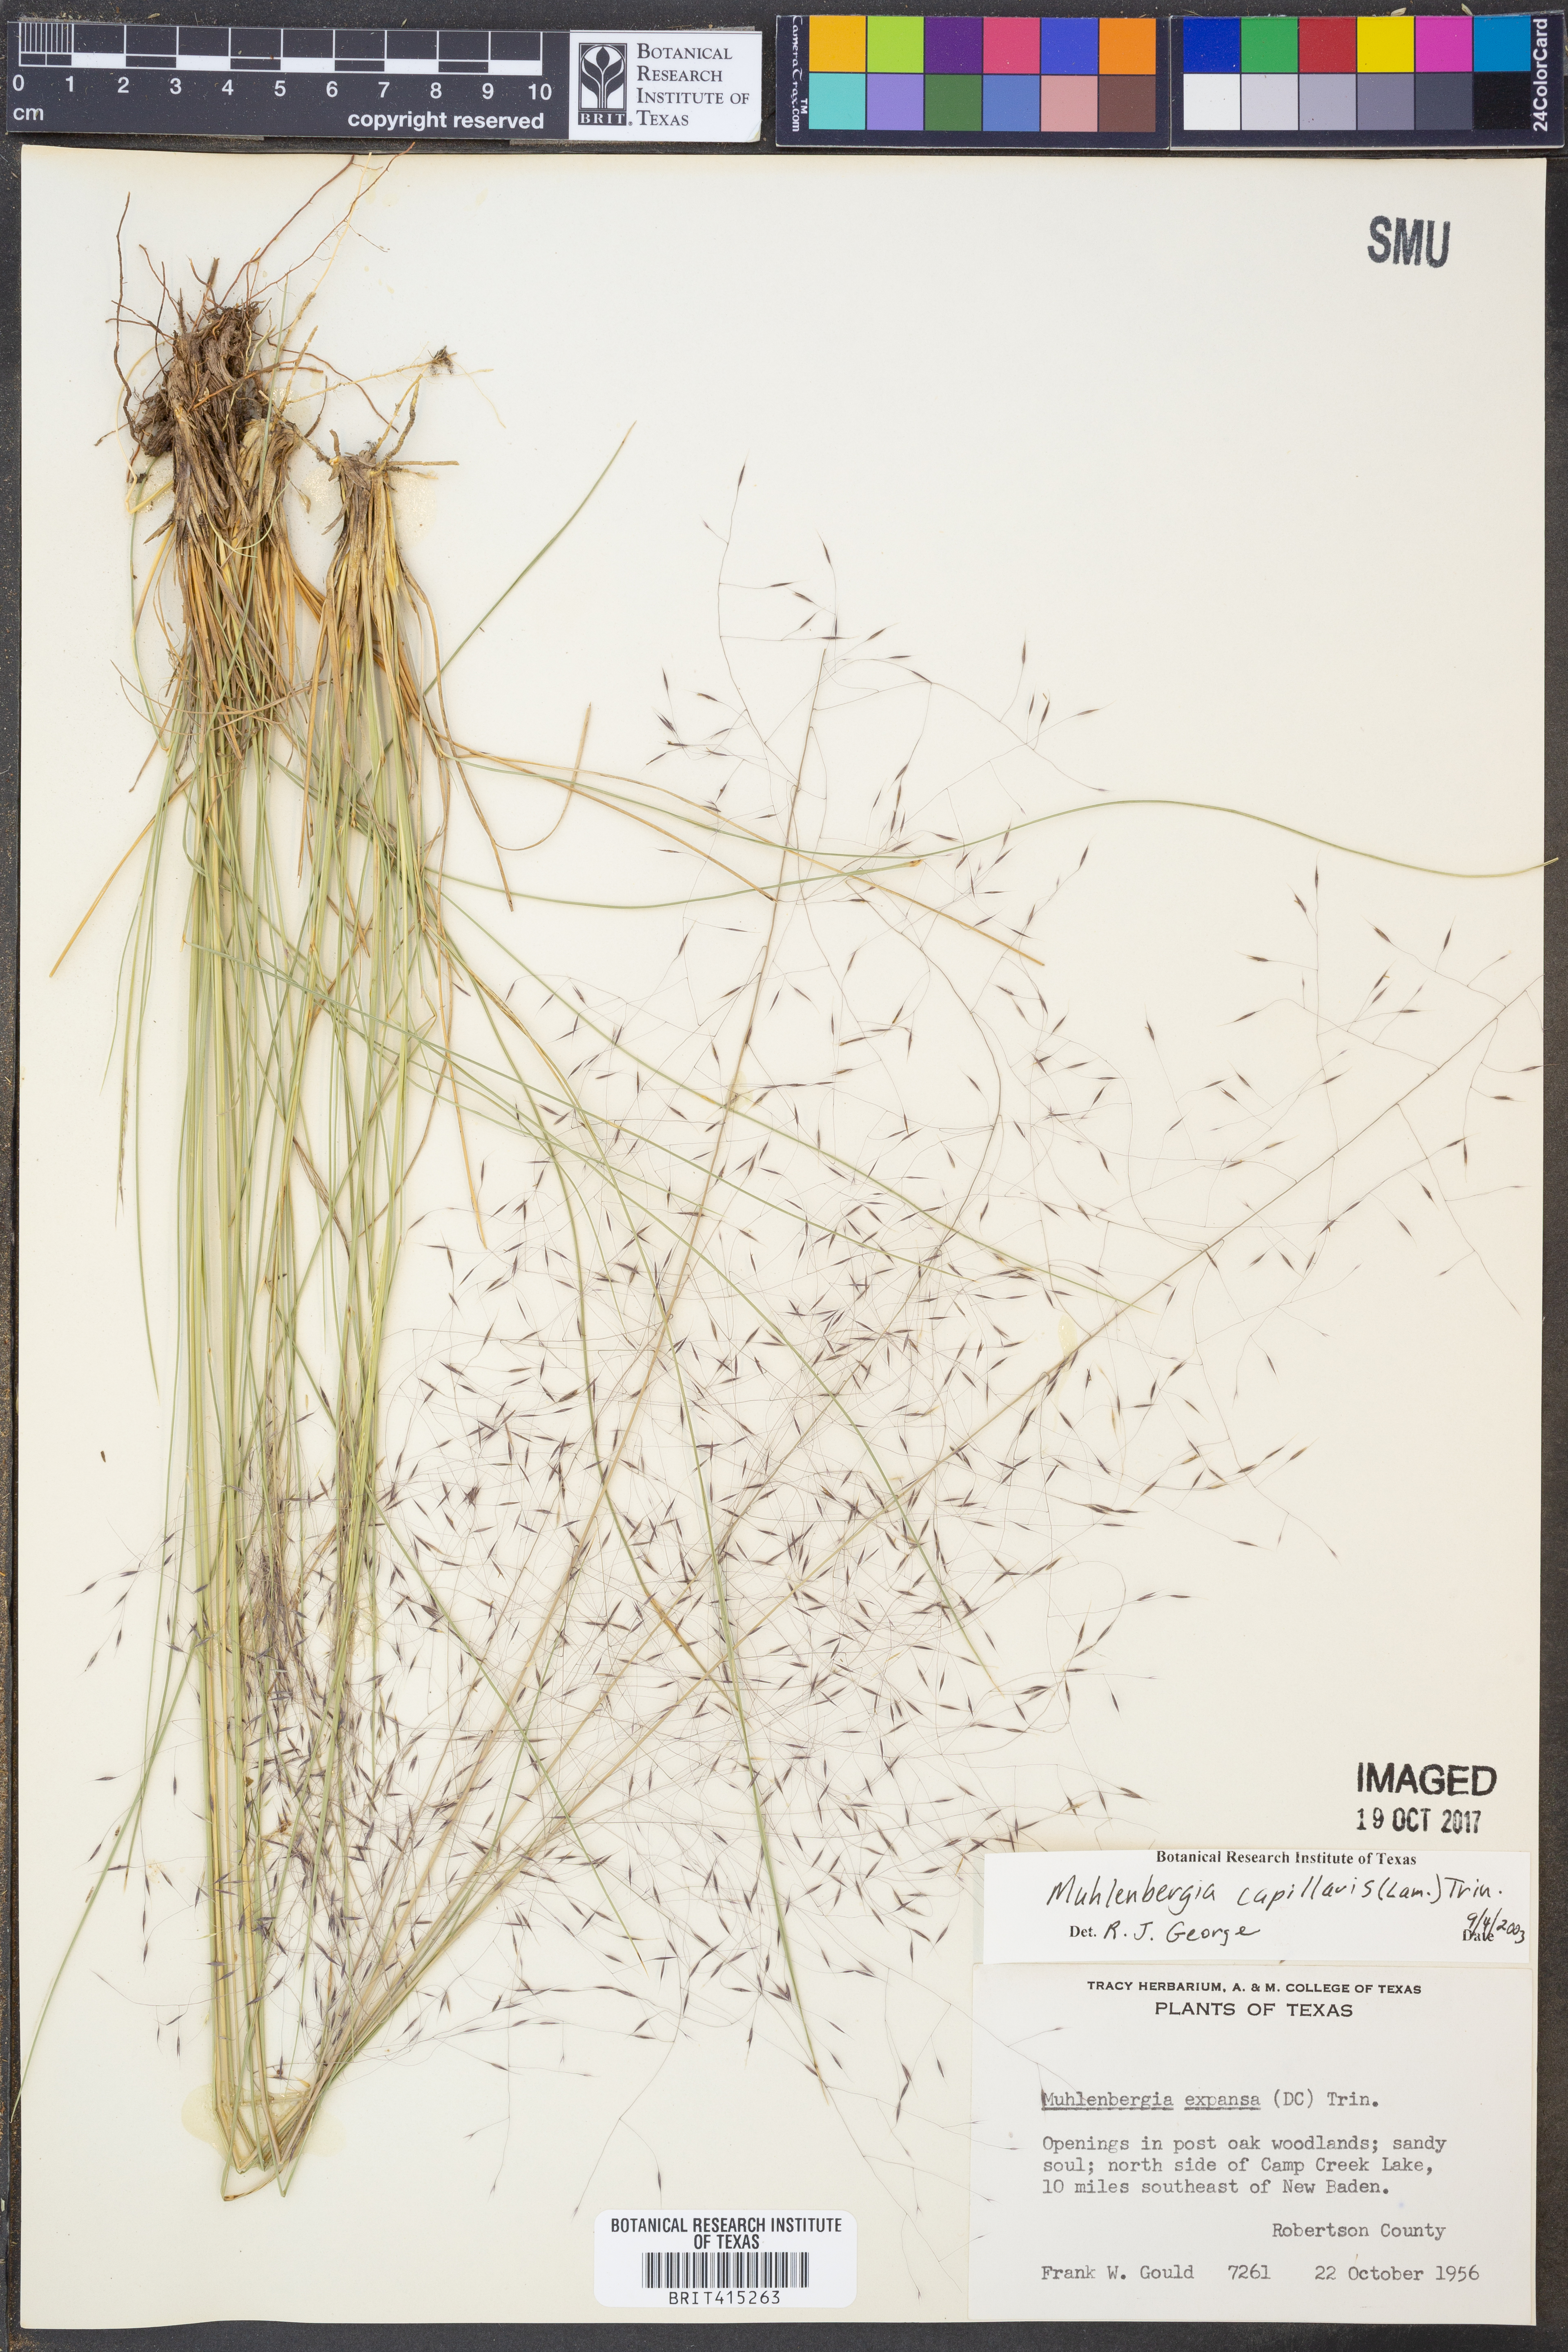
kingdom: Plantae
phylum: Tracheophyta
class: Liliopsida
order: Poales
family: Poaceae
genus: Muhlenbergia
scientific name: Muhlenbergia capillaris
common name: Purple grass
